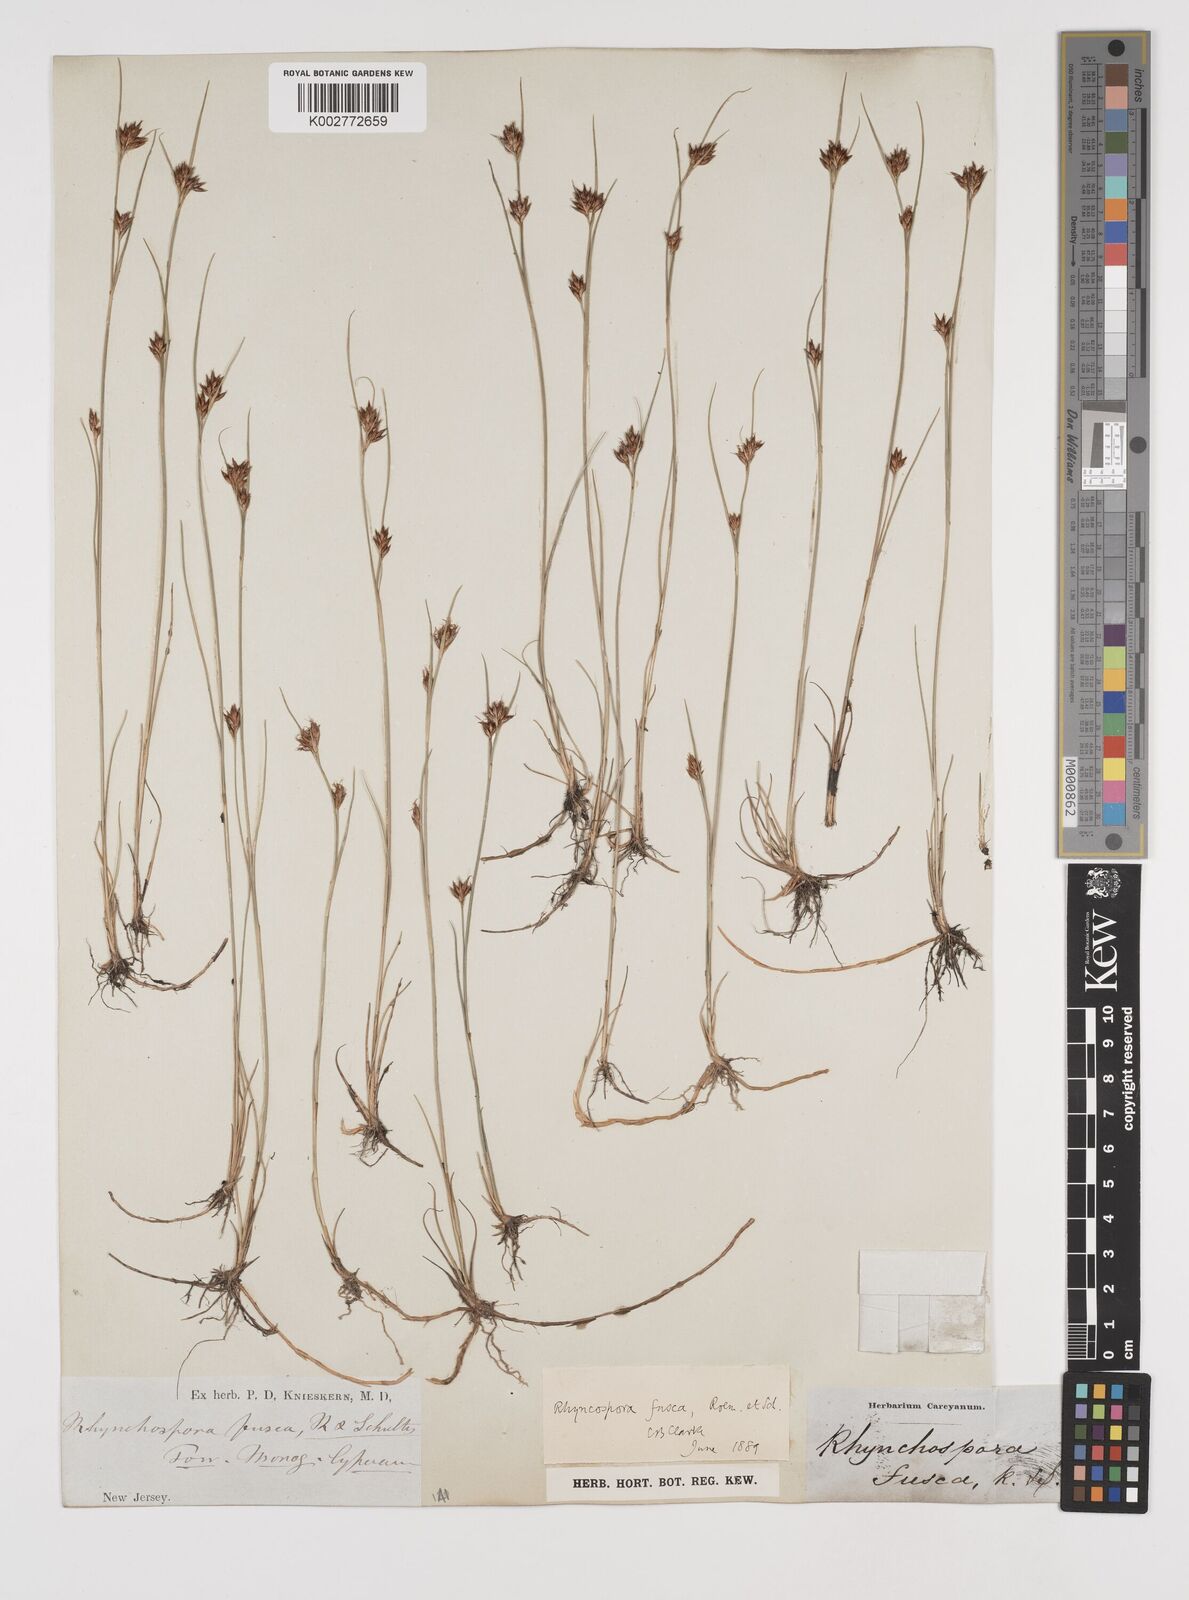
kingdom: Plantae
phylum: Tracheophyta
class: Liliopsida
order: Poales
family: Cyperaceae
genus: Rhynchospora
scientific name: Rhynchospora fusca
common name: Brown beak-sedge
